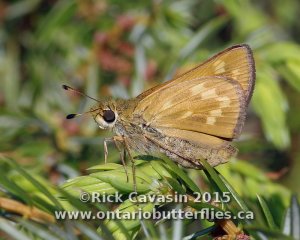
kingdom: Animalia
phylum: Arthropoda
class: Insecta
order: Lepidoptera
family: Hesperiidae
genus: Hesperia
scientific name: Hesperia sassacus
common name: Sassacus Skipper
